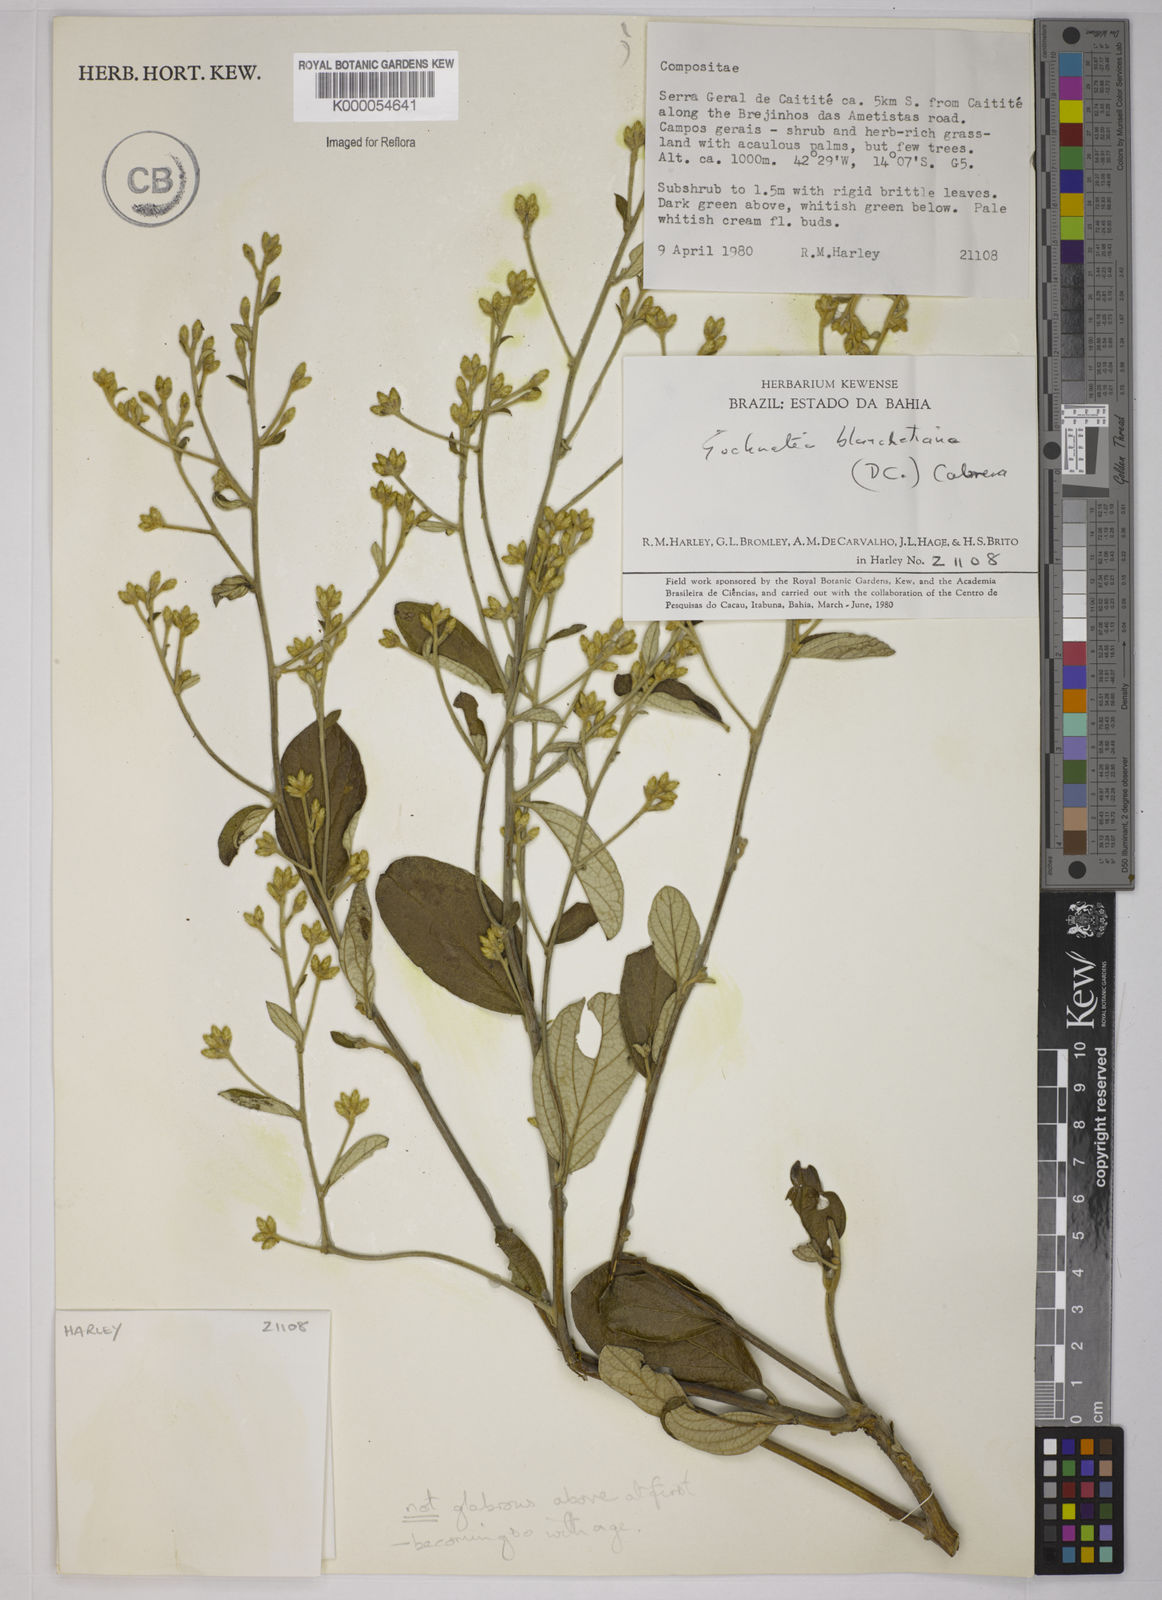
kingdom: Plantae
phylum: Tracheophyta
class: Magnoliopsida
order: Asterales
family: Asteraceae
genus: Moquiniastrum
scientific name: Moquiniastrum blanchetianum
